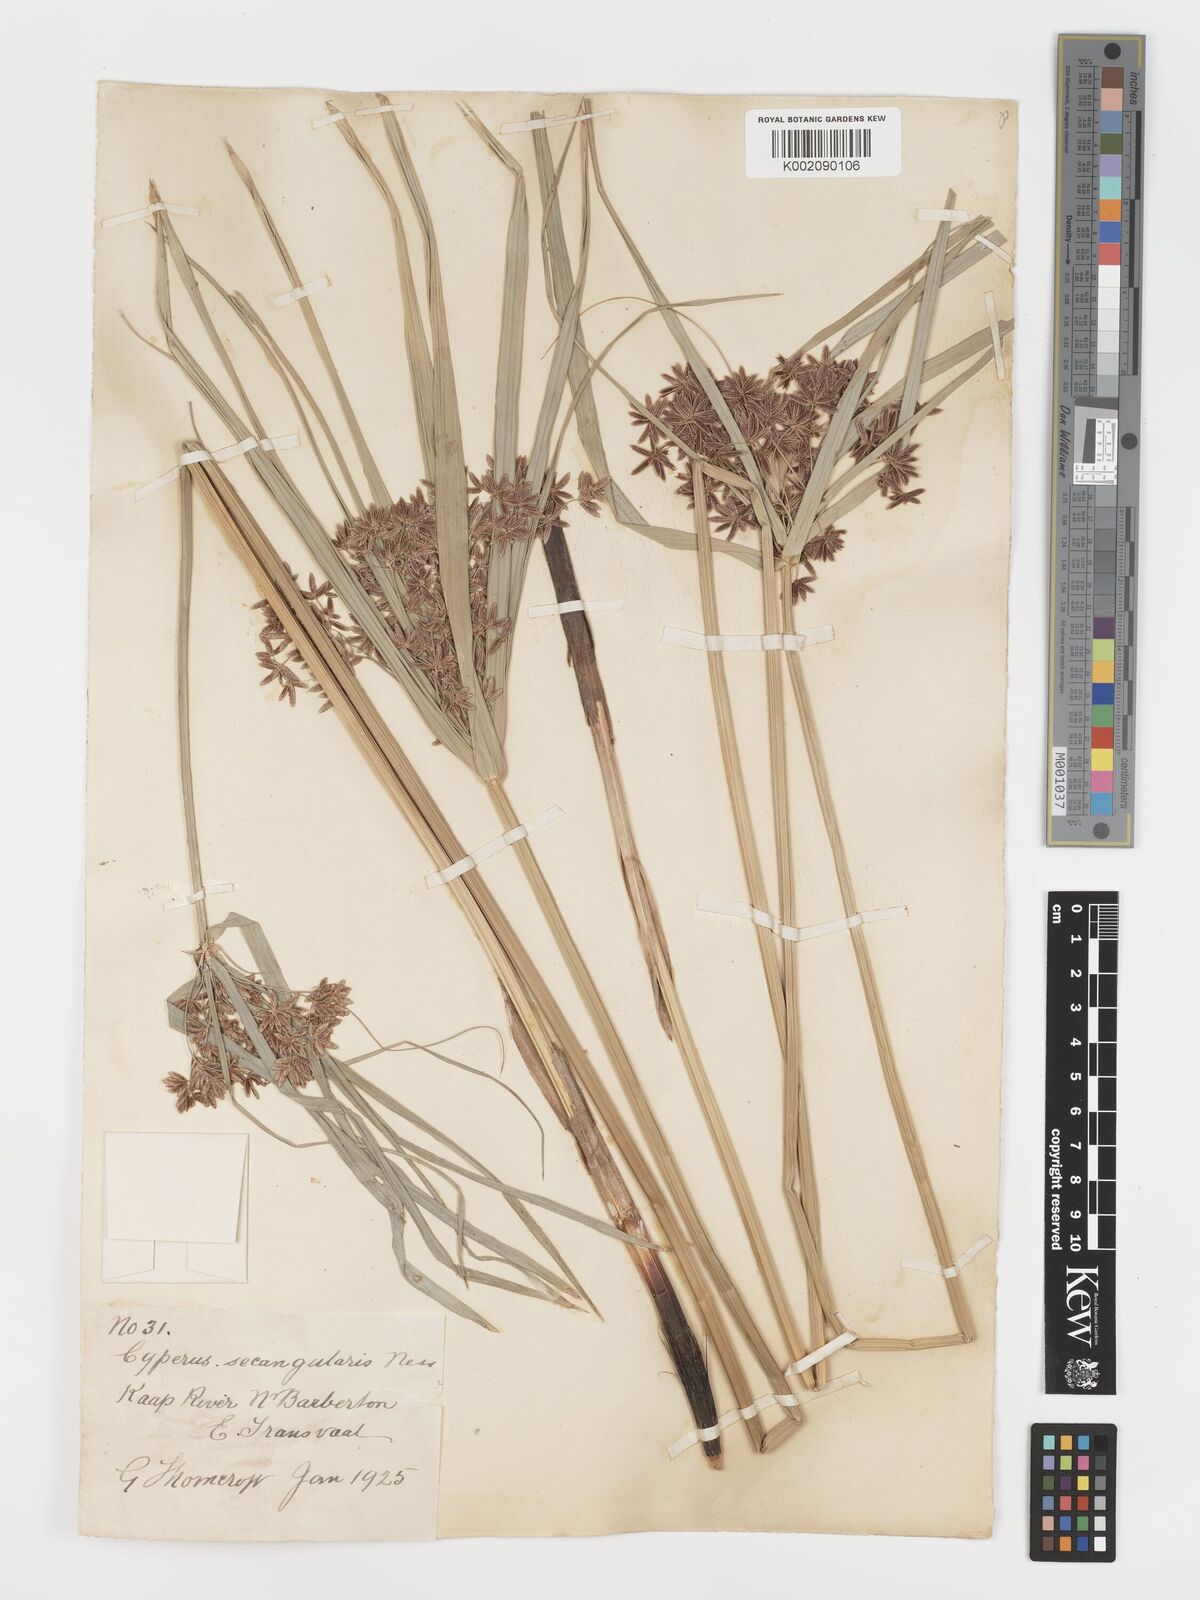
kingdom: Plantae
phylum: Tracheophyta
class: Liliopsida
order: Poales
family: Cyperaceae
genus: Cyperus
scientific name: Cyperus sexangularis
